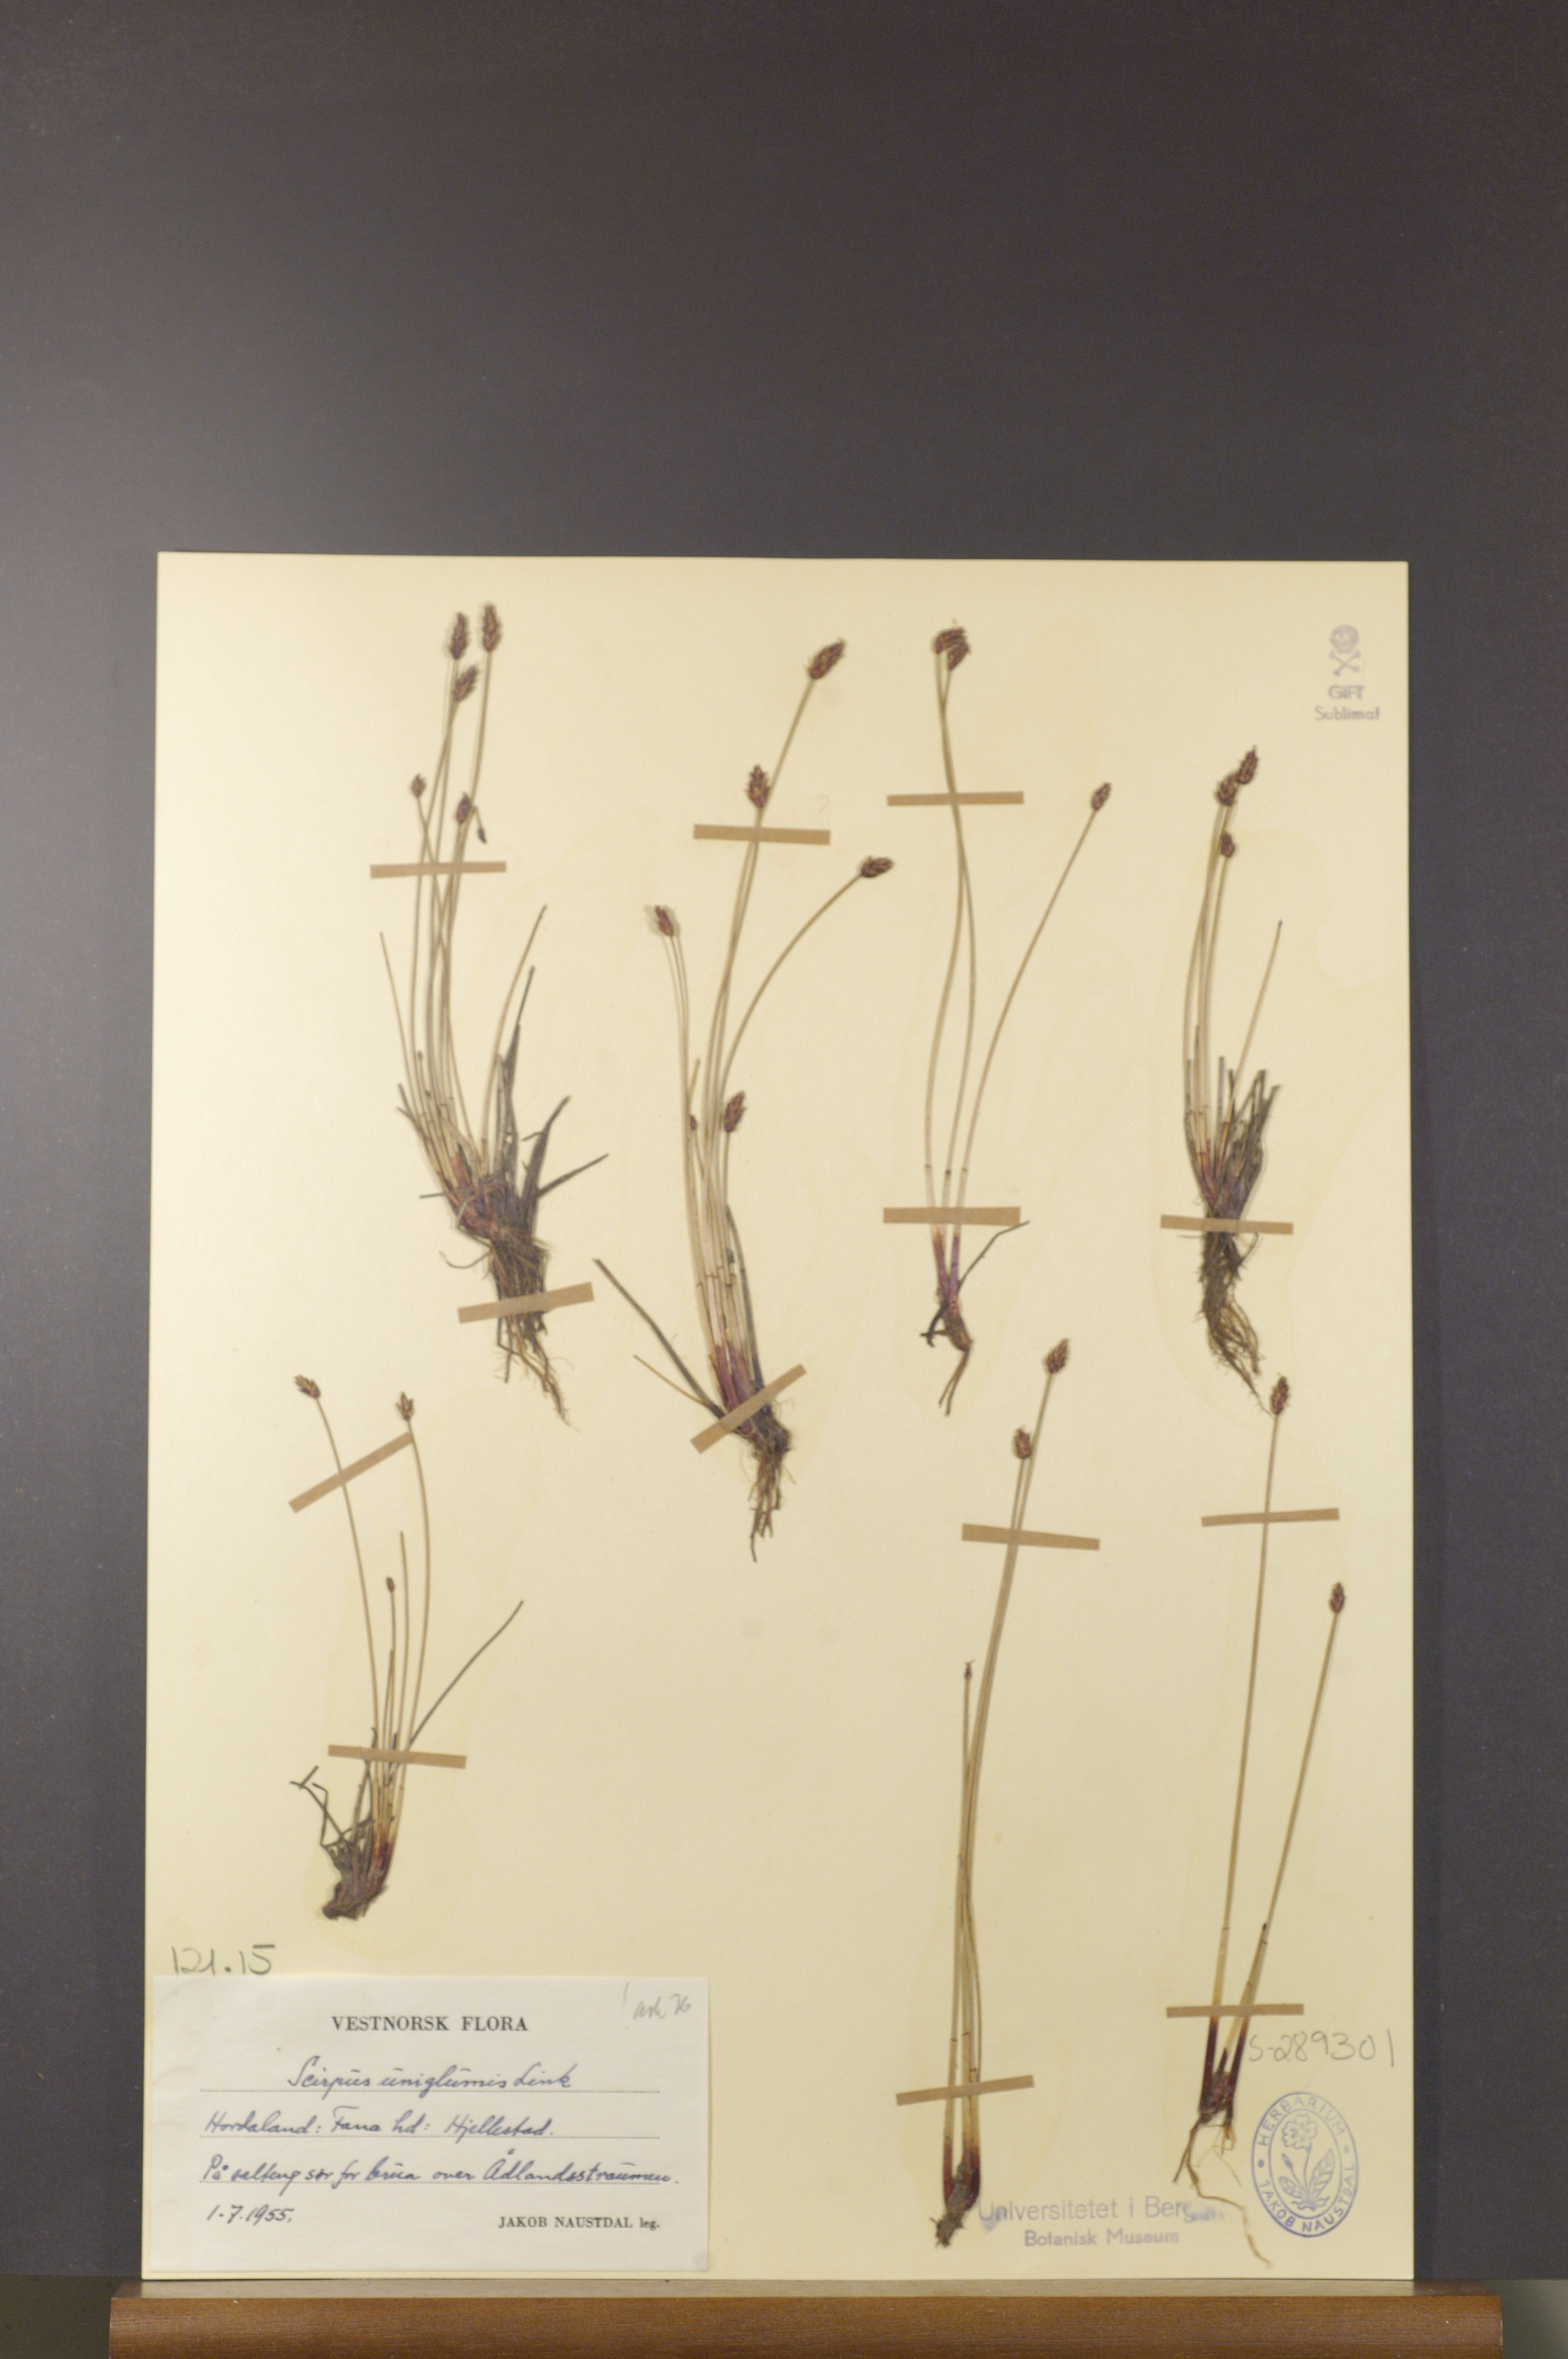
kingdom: Plantae
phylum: Tracheophyta
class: Liliopsida
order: Poales
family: Cyperaceae
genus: Eleocharis
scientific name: Eleocharis uniglumis
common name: Slender spike-rush
